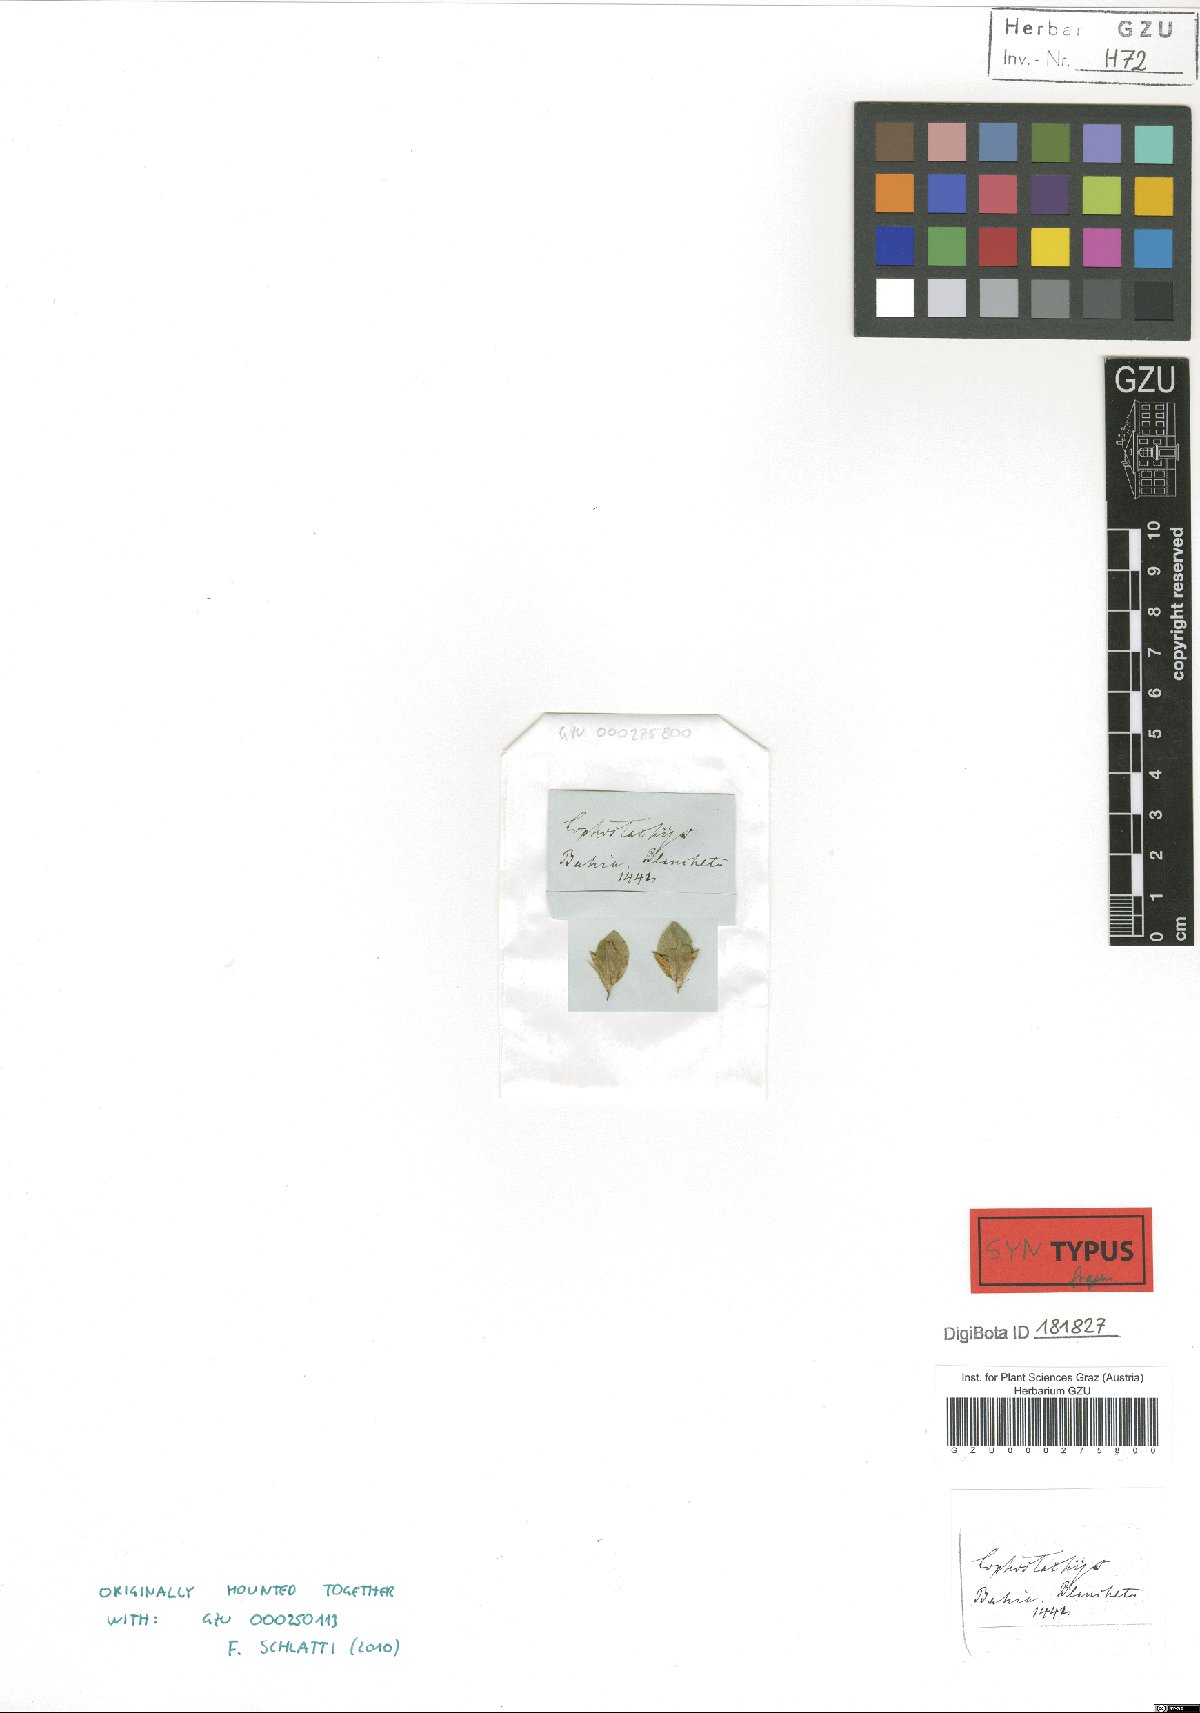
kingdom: Plantae
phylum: Tracheophyta
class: Magnoliopsida
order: Lamiales
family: Acanthaceae
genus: Lepidagathis
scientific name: Lepidagathis nemoralis
